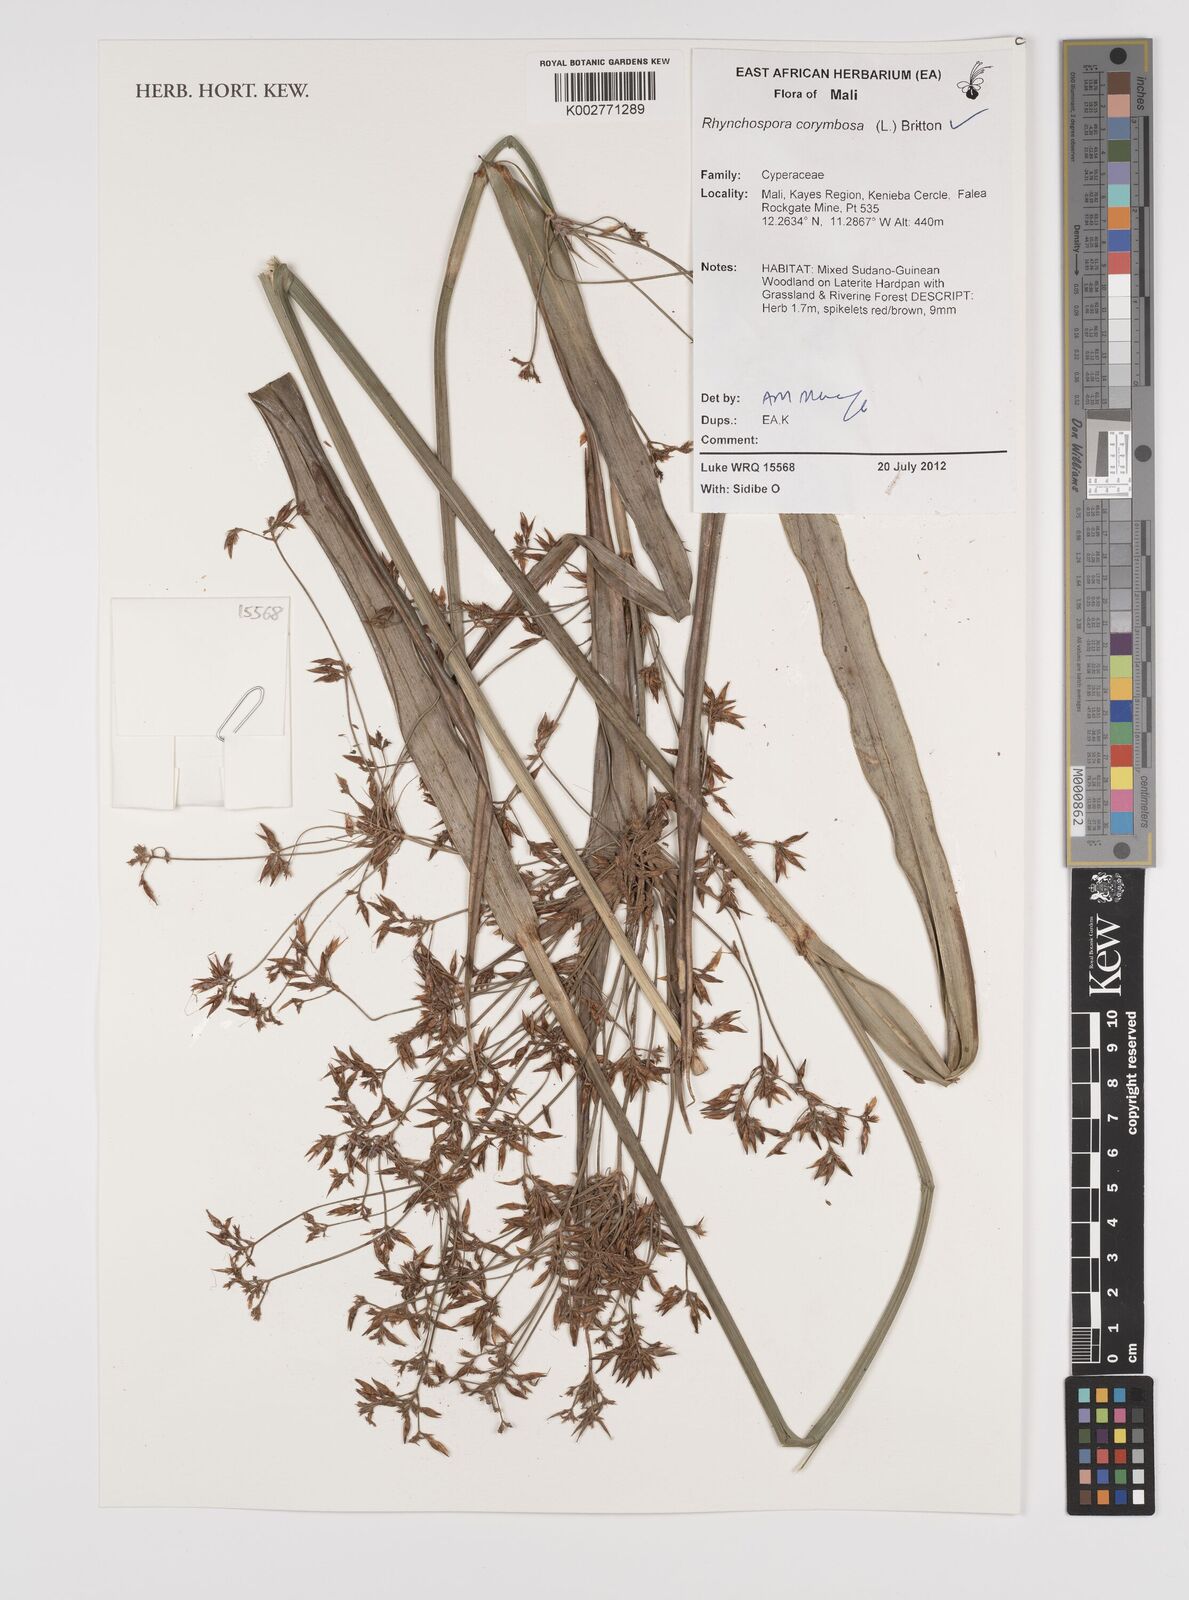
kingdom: Plantae
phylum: Tracheophyta
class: Liliopsida
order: Poales
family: Cyperaceae
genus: Rhynchospora
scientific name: Rhynchospora corymbosa
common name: Golden beak sedge
